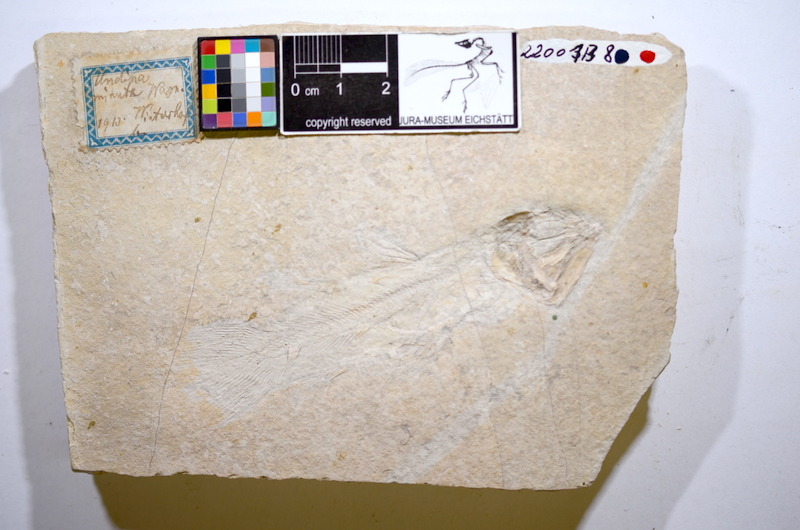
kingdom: Animalia
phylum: Chordata
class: Coelacanthi
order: Coelacanthiformes
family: Latimeroidea
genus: Undina
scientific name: Undina
